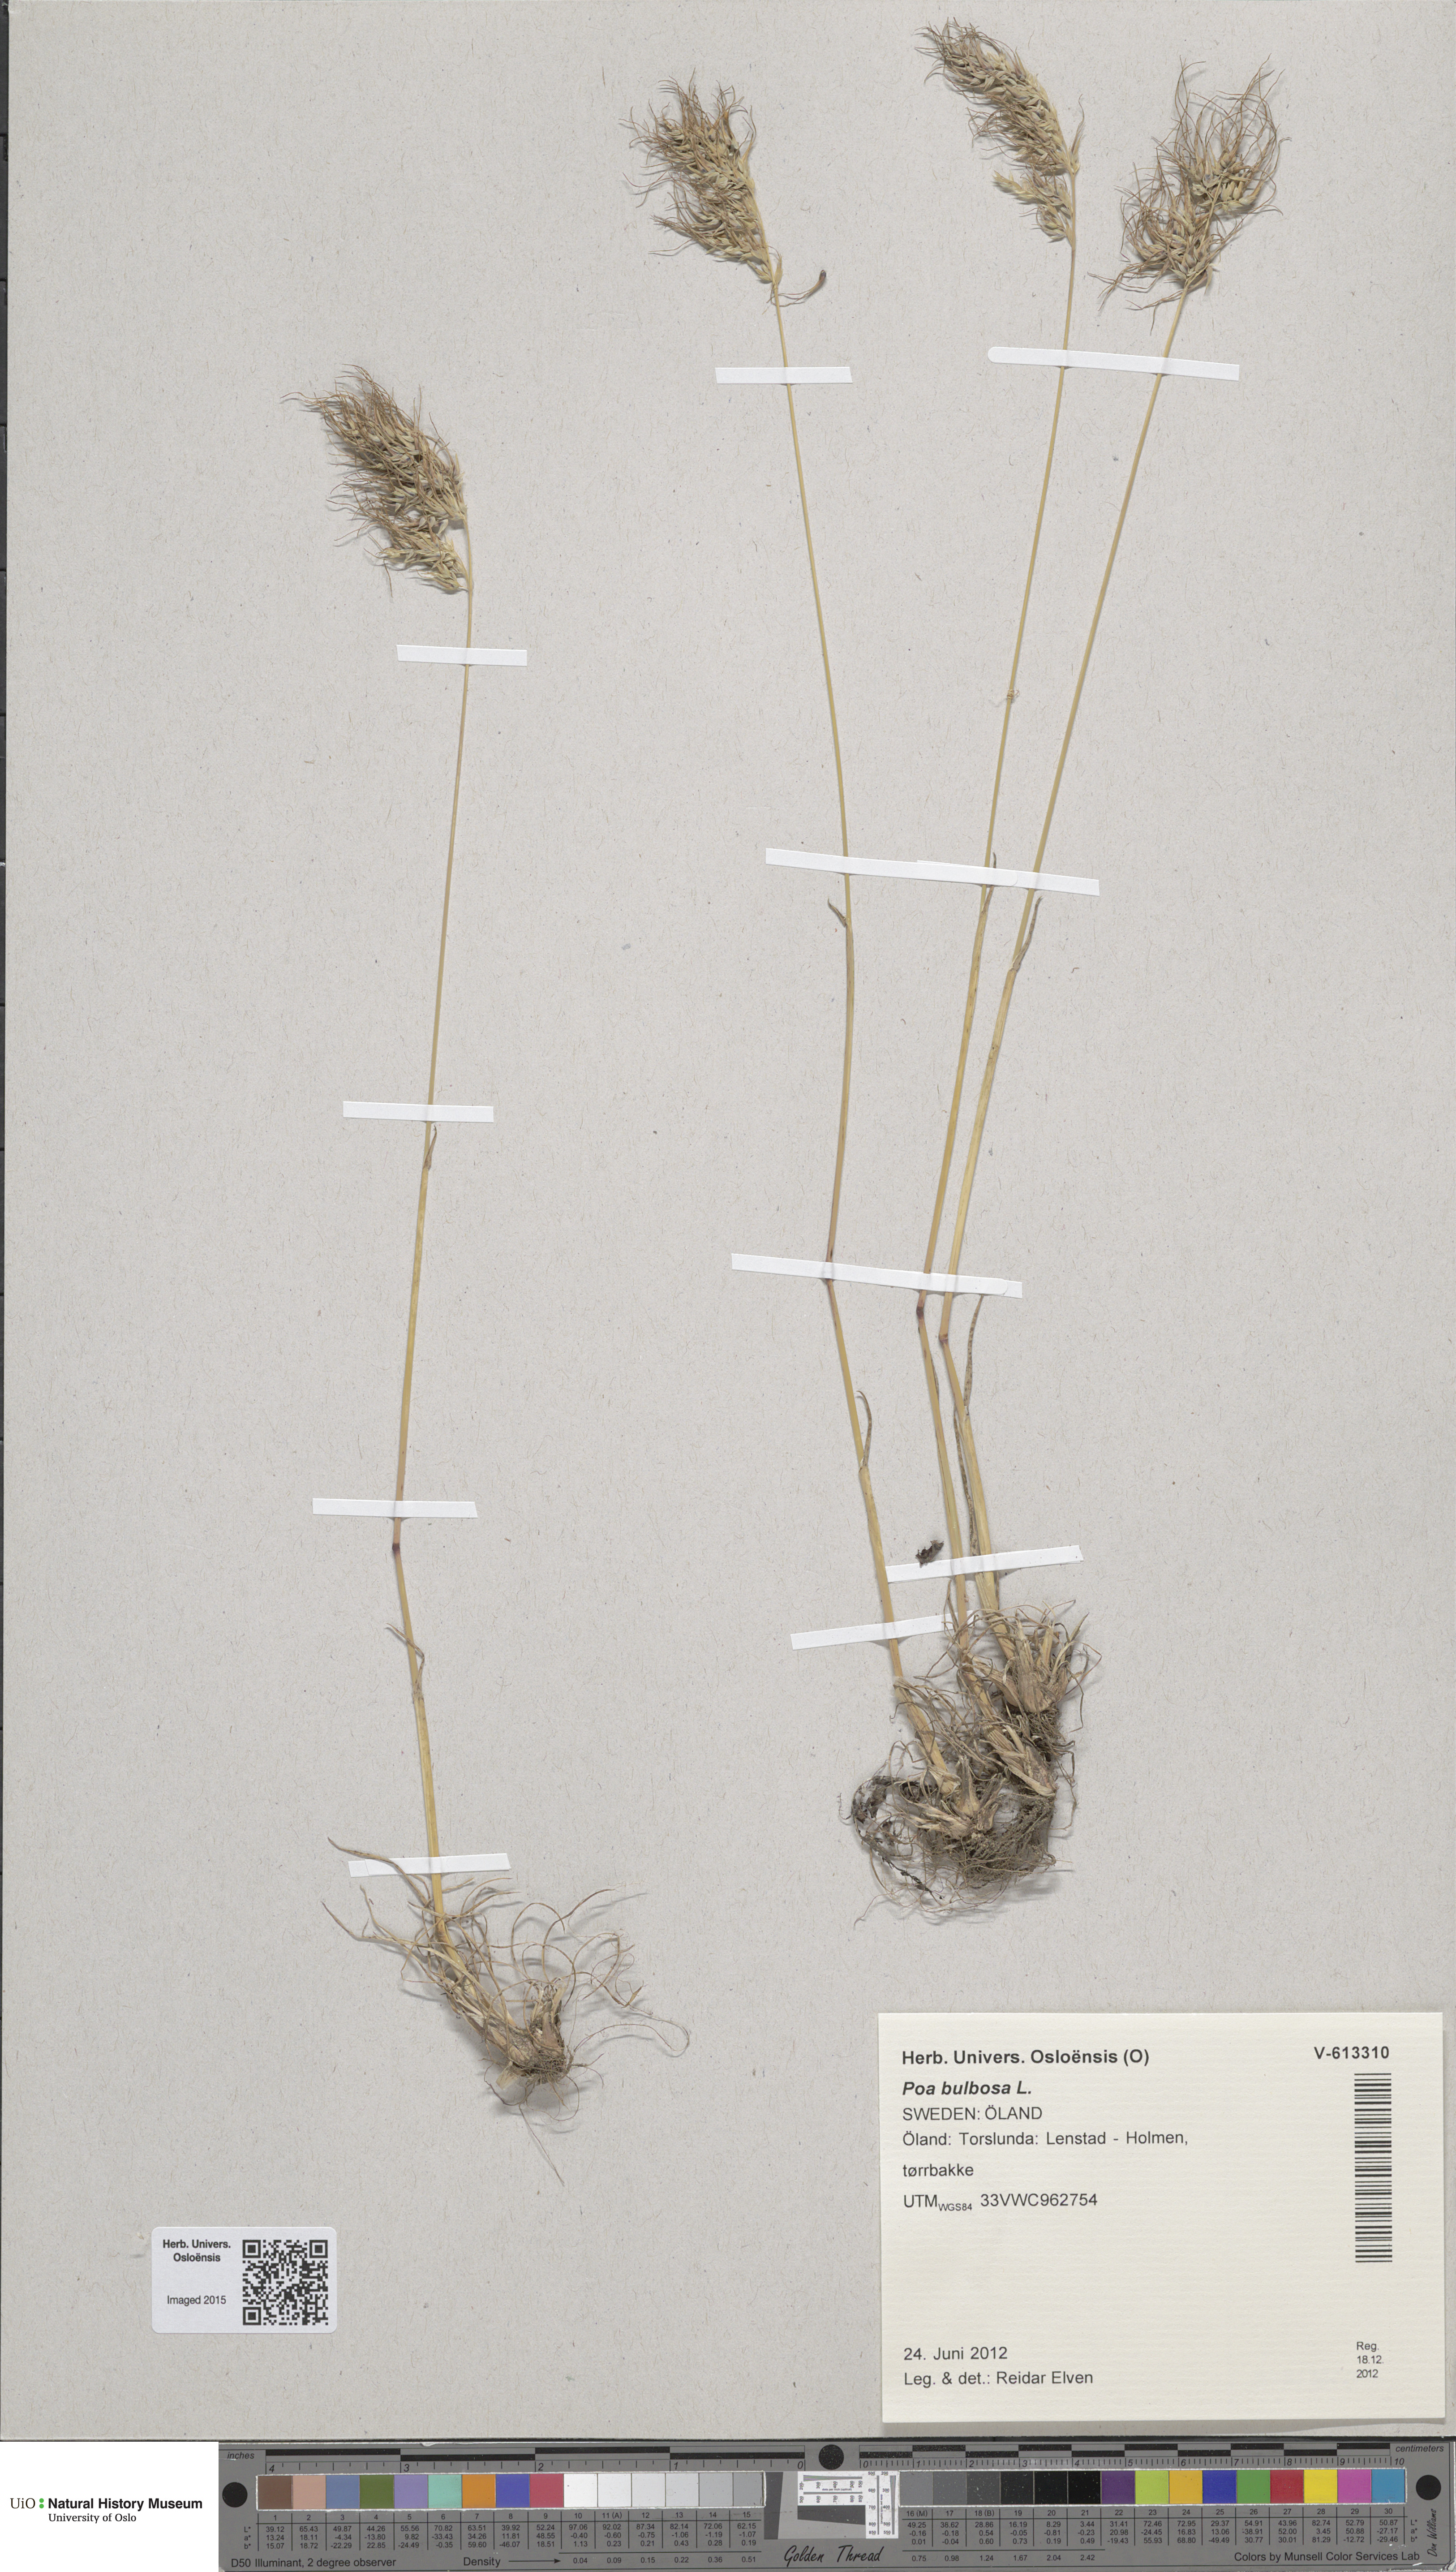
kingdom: Plantae
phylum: Tracheophyta
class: Liliopsida
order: Poales
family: Poaceae
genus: Poa
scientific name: Poa bulbosa
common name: Bulbous bluegrass
